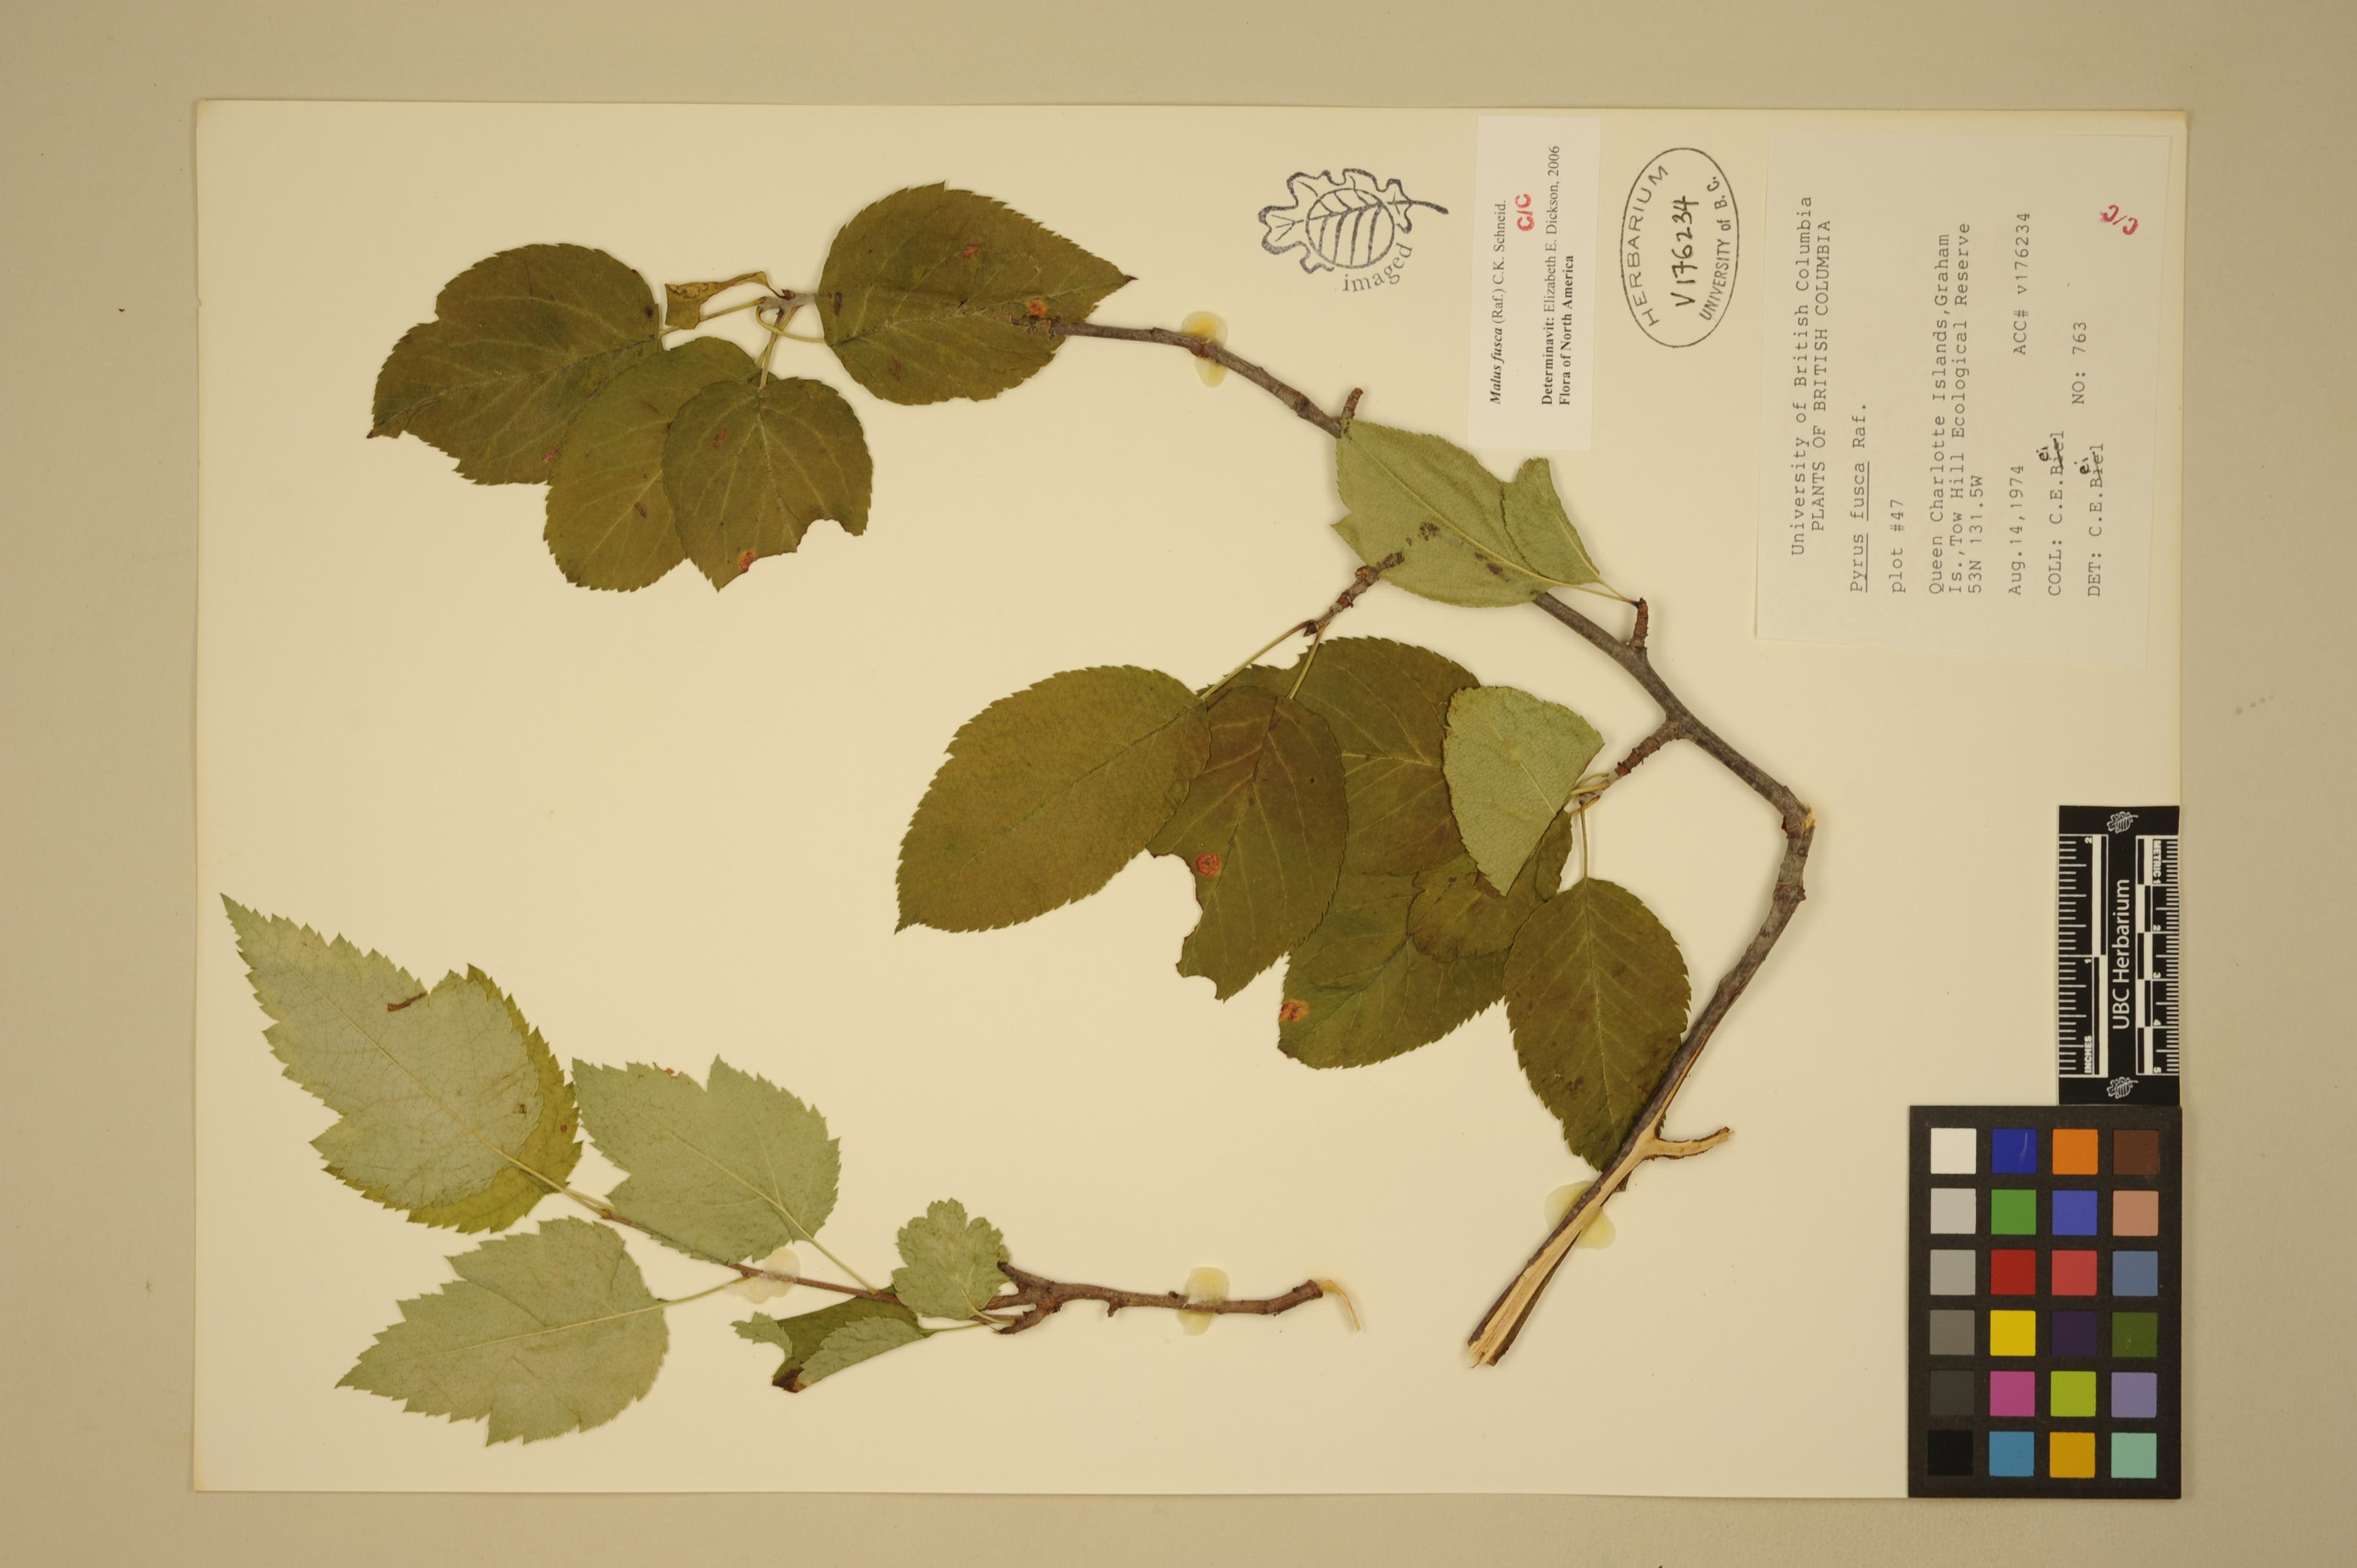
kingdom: Plantae
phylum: Tracheophyta
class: Magnoliopsida
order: Rosales
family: Rosaceae
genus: Malus
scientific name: Malus fusca
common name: Oregon crab apple
